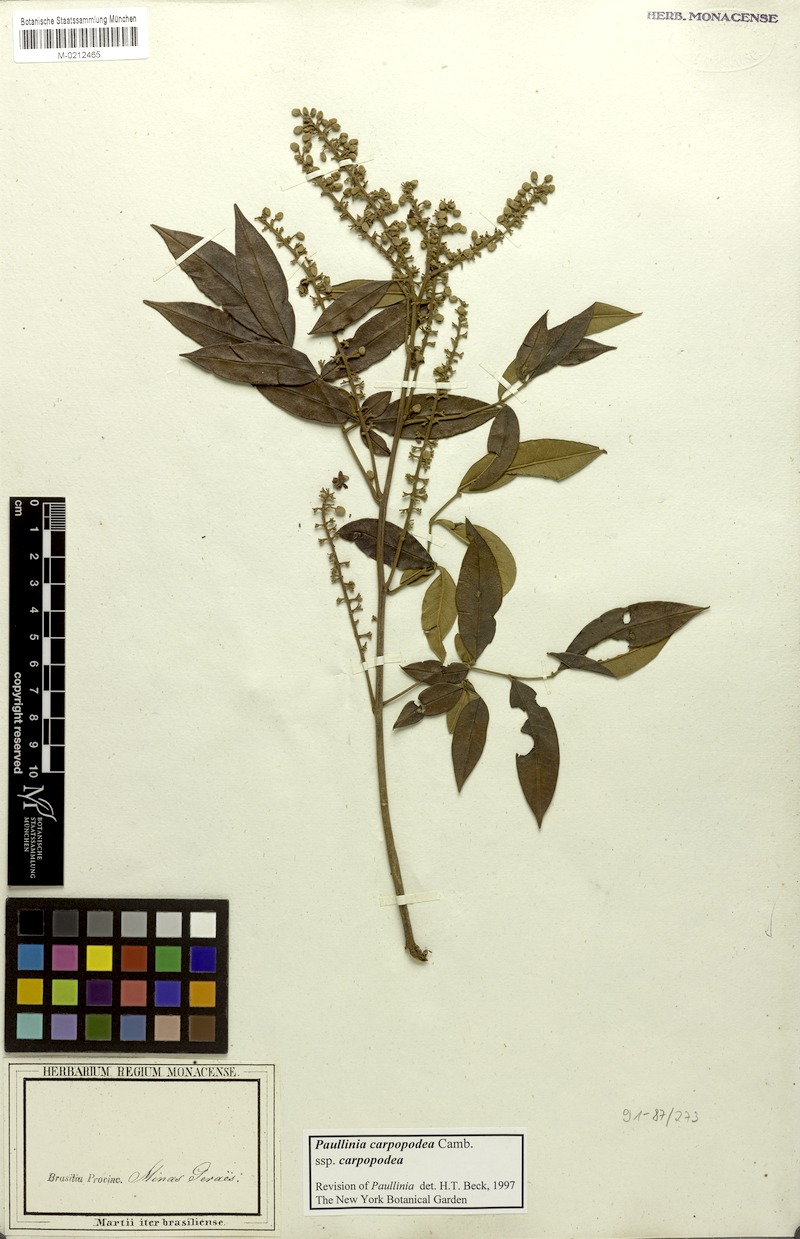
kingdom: Plantae
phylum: Tracheophyta
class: Magnoliopsida
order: Sapindales
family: Sapindaceae
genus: Paullinia
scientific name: Paullinia carpopoda
